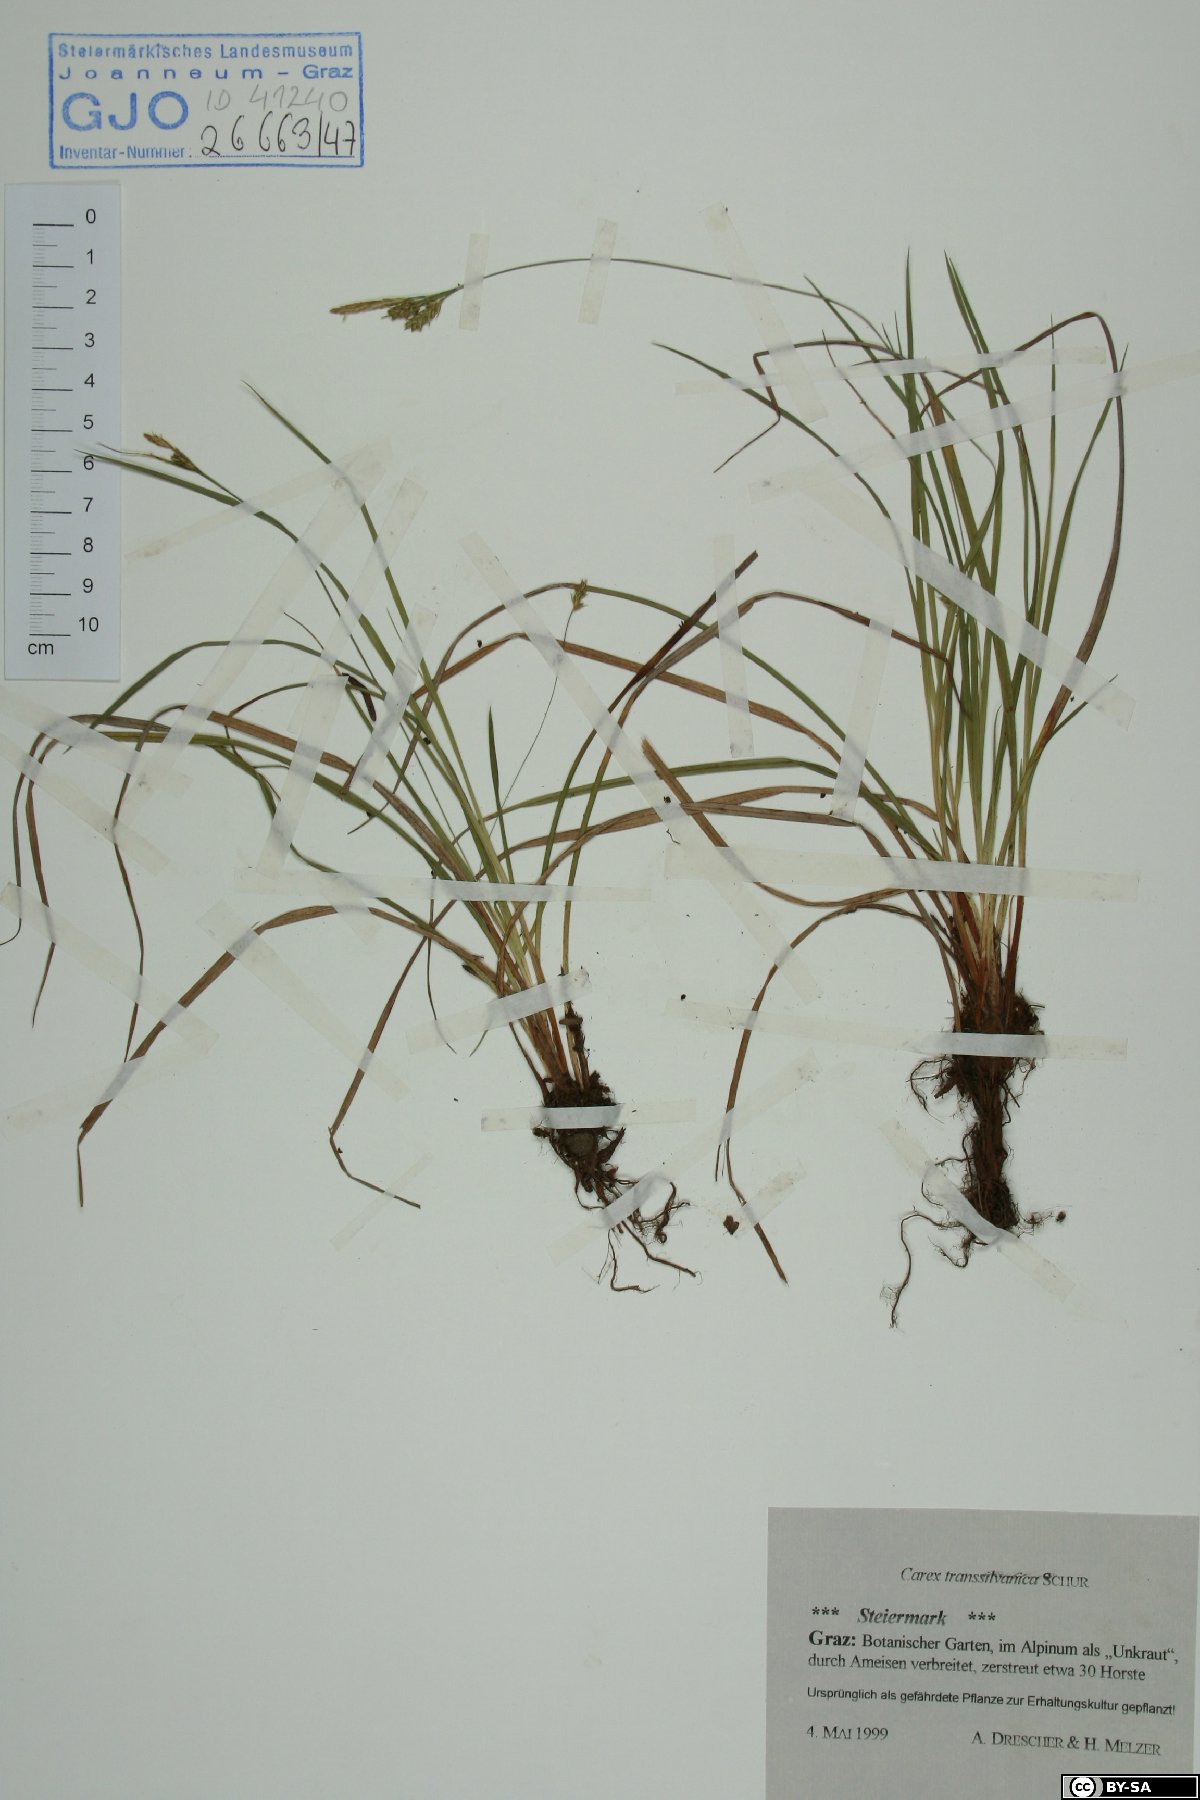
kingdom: Plantae
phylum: Tracheophyta
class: Liliopsida
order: Poales
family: Cyperaceae
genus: Carex
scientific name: Carex depressa
